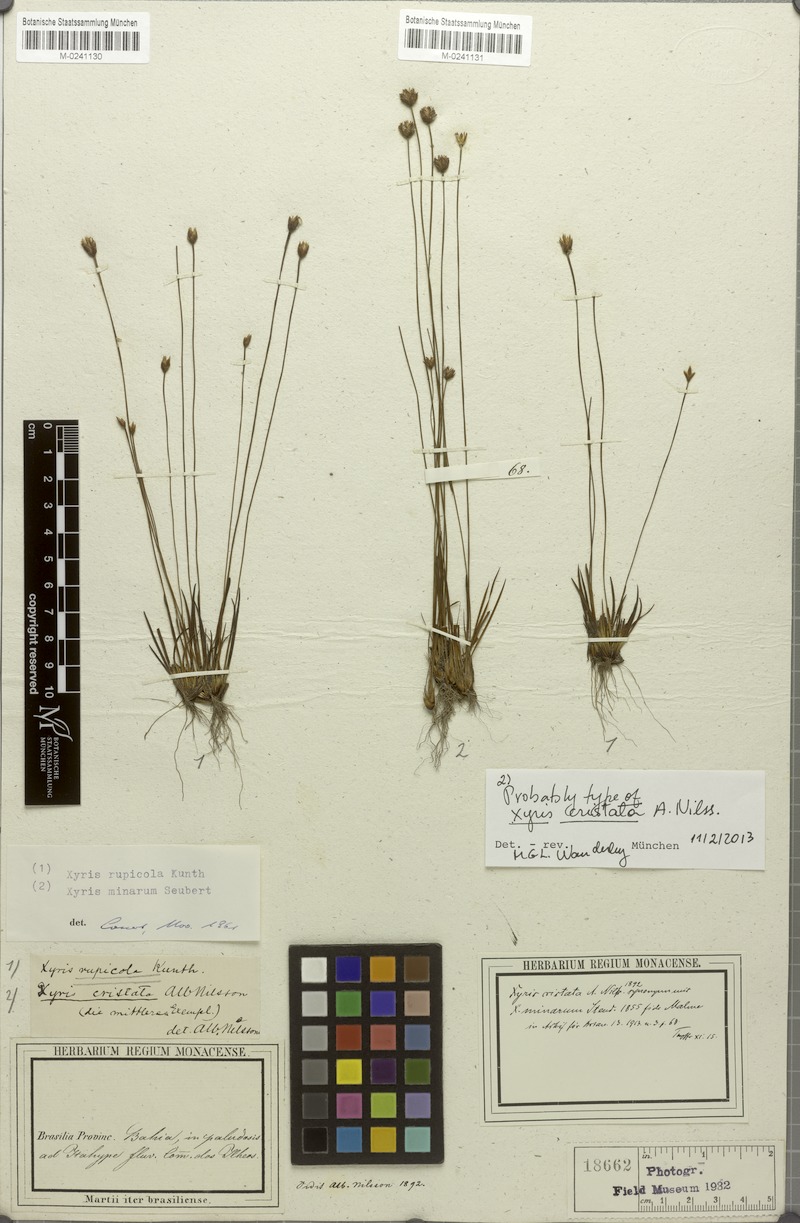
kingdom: Plantae
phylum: Tracheophyta
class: Liliopsida
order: Poales
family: Xyridaceae
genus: Xyris
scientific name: Xyris rupicola
